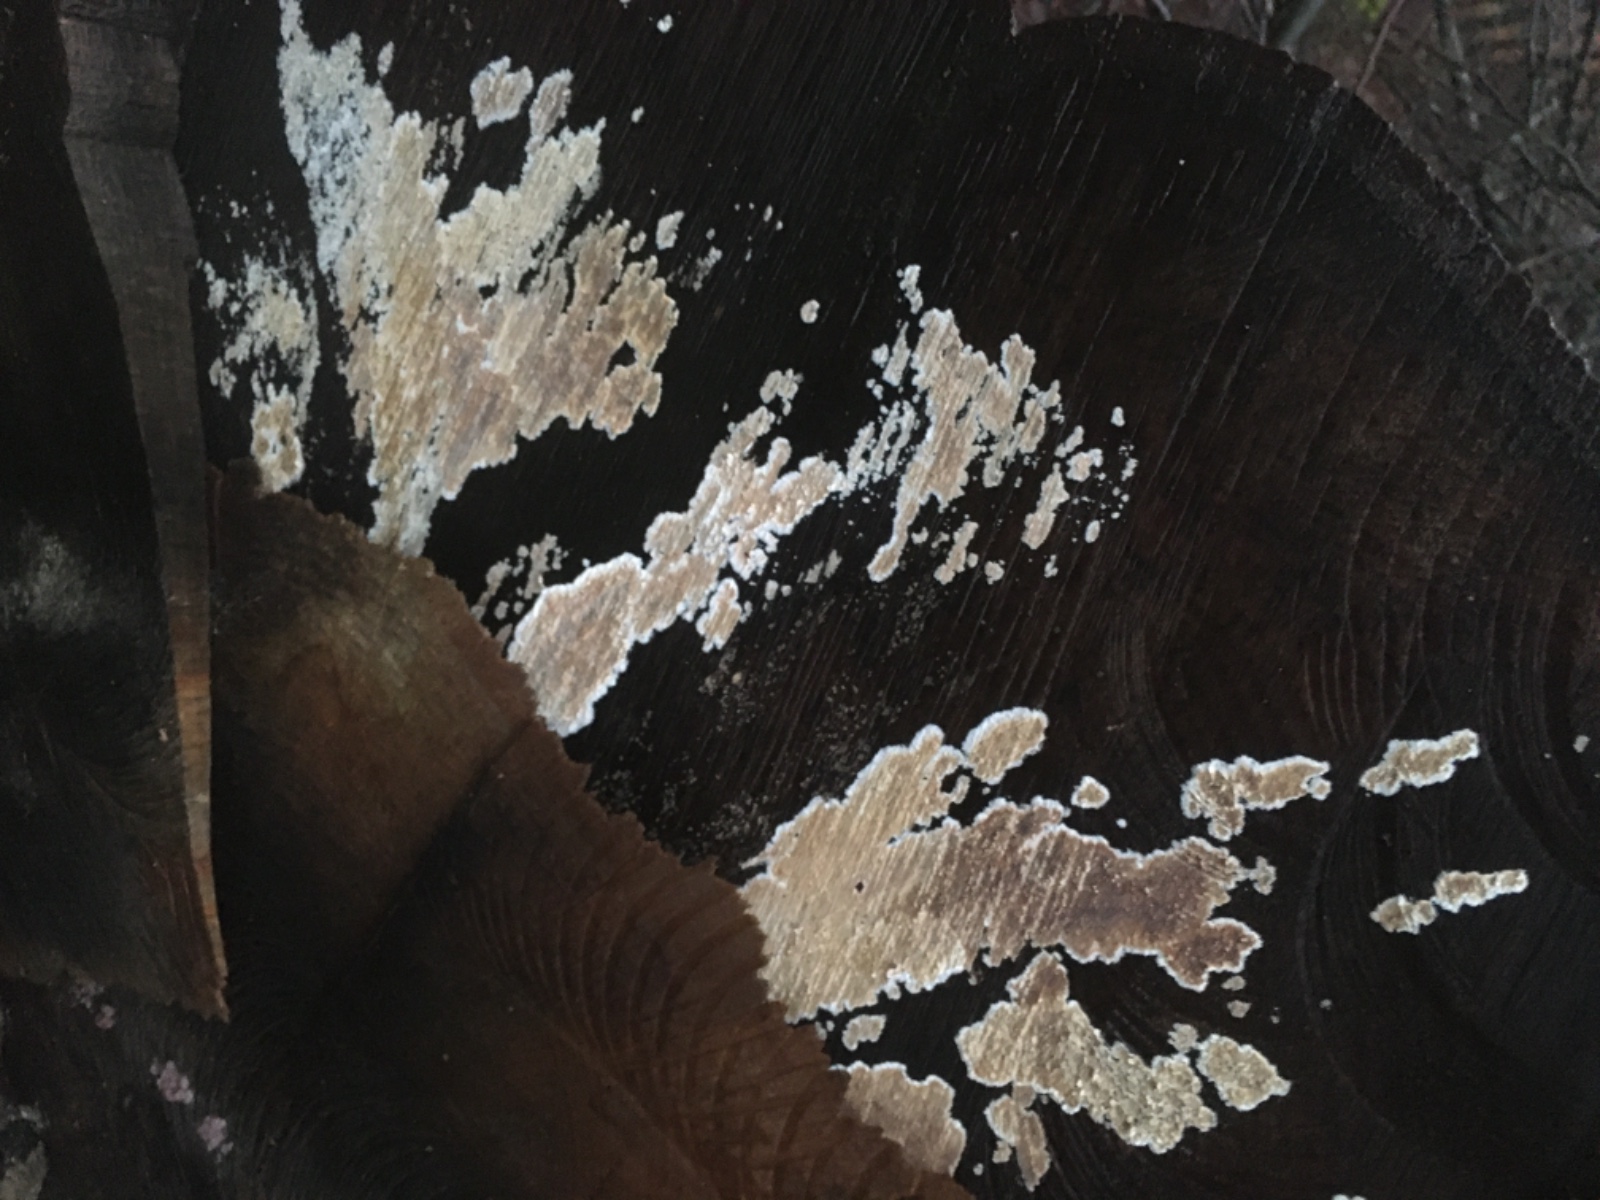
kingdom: Fungi
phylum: Basidiomycota
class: Agaricomycetes
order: Agaricales
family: Physalacriaceae
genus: Cylindrobasidium
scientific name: Cylindrobasidium evolvens
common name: sprækkehinde
